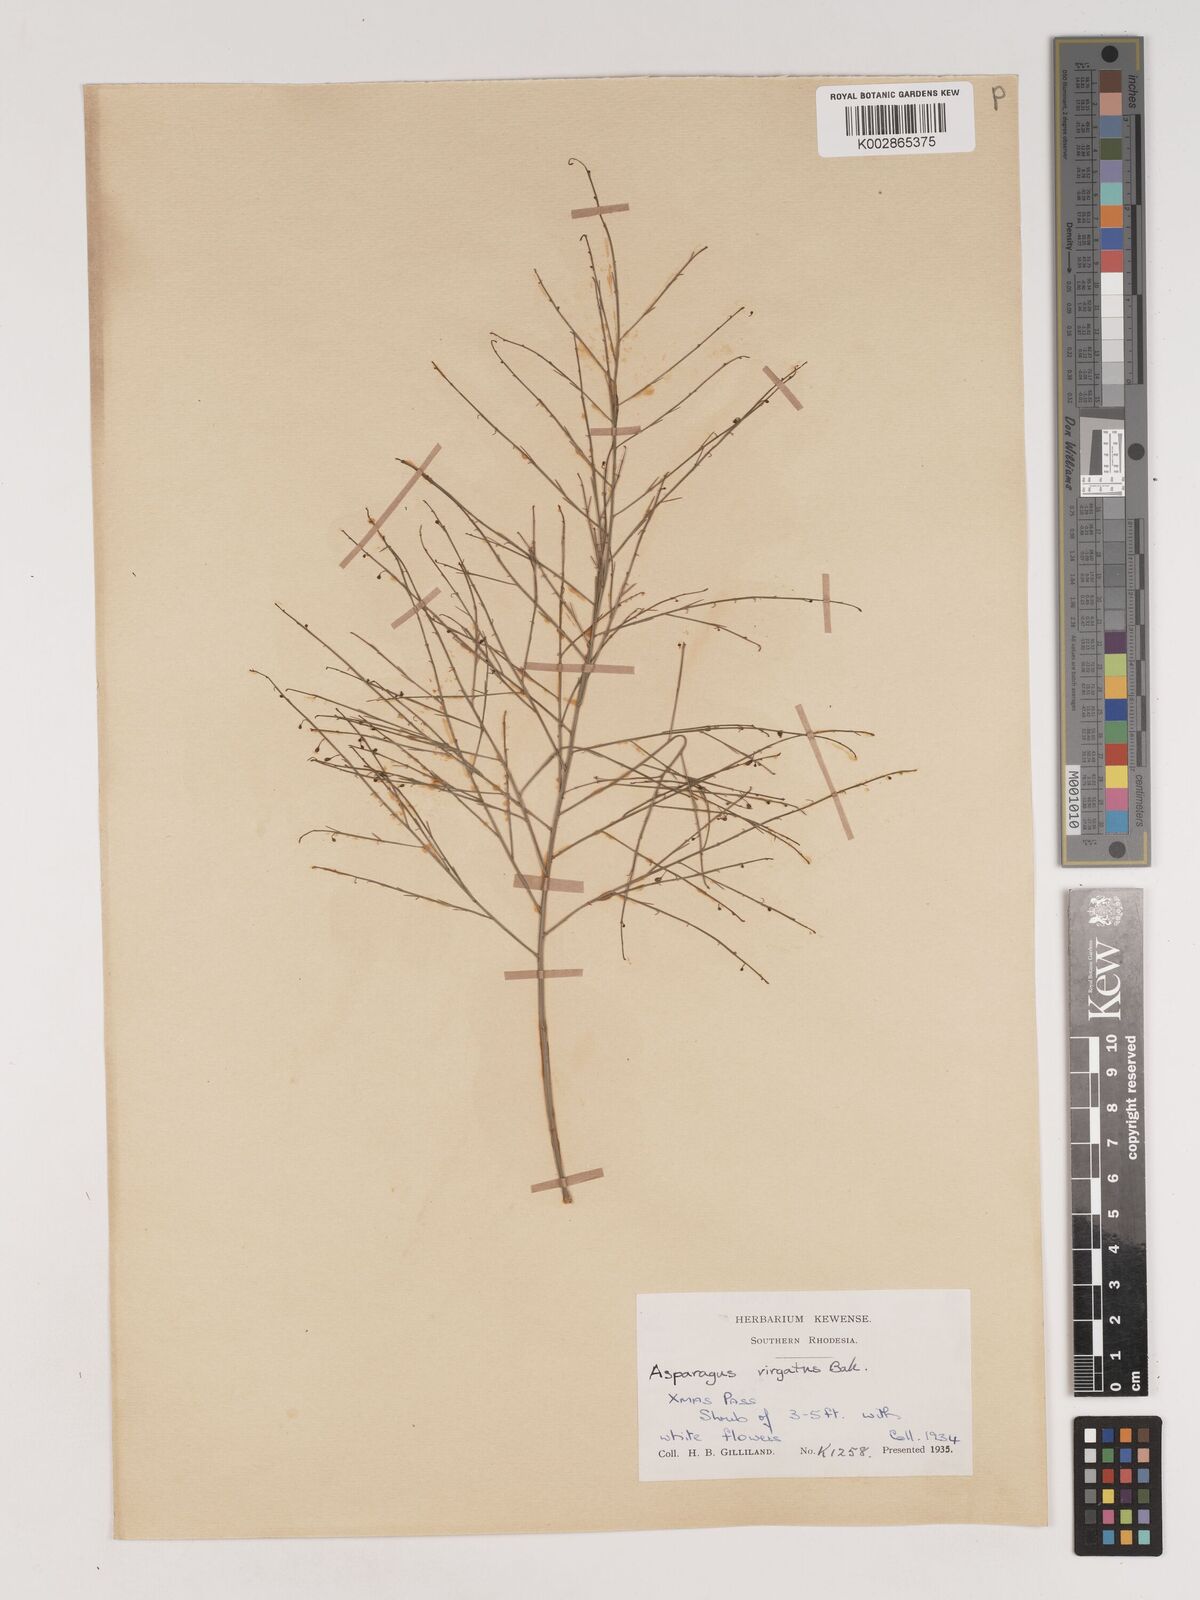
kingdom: Plantae
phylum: Tracheophyta
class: Liliopsida
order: Asparagales
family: Asparagaceae
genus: Asparagus
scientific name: Asparagus virgatus
